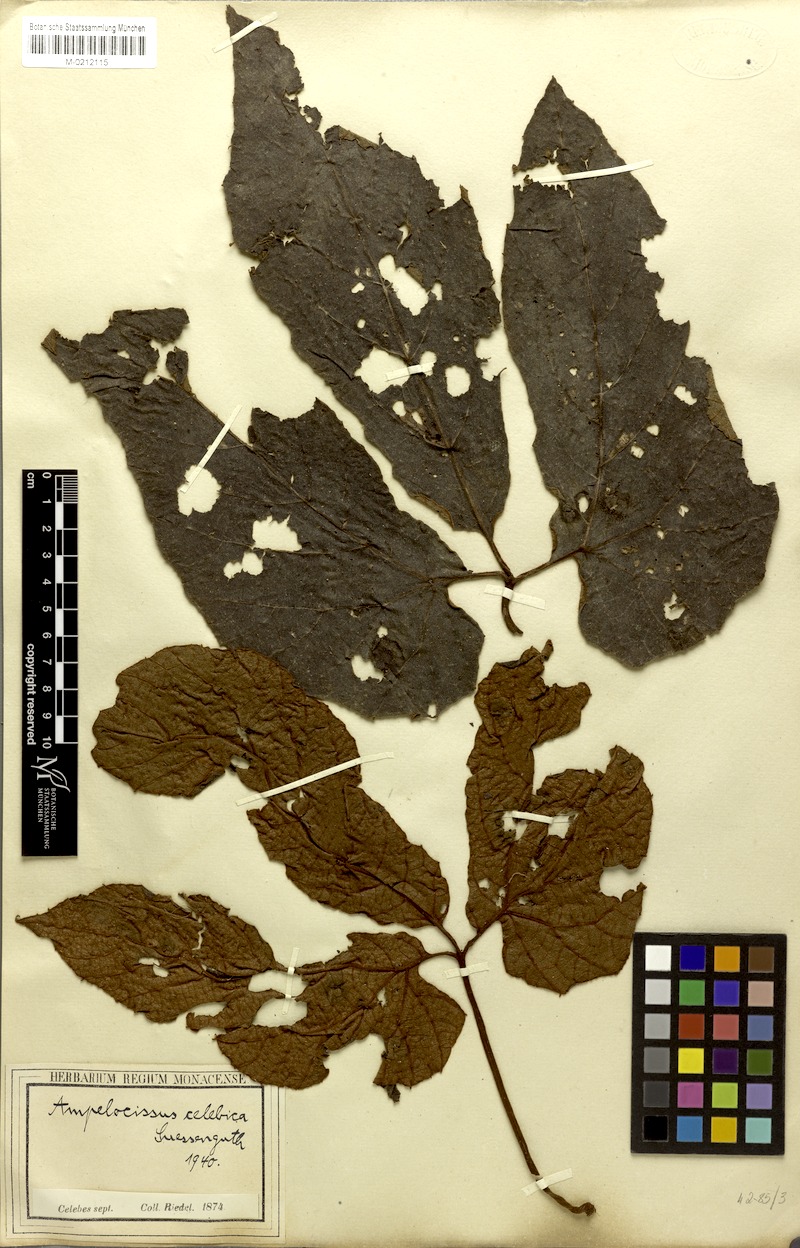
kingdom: Plantae
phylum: Tracheophyta
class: Magnoliopsida
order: Vitales
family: Vitaceae
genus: Ampelocissus
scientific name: Ampelocissus celebica
